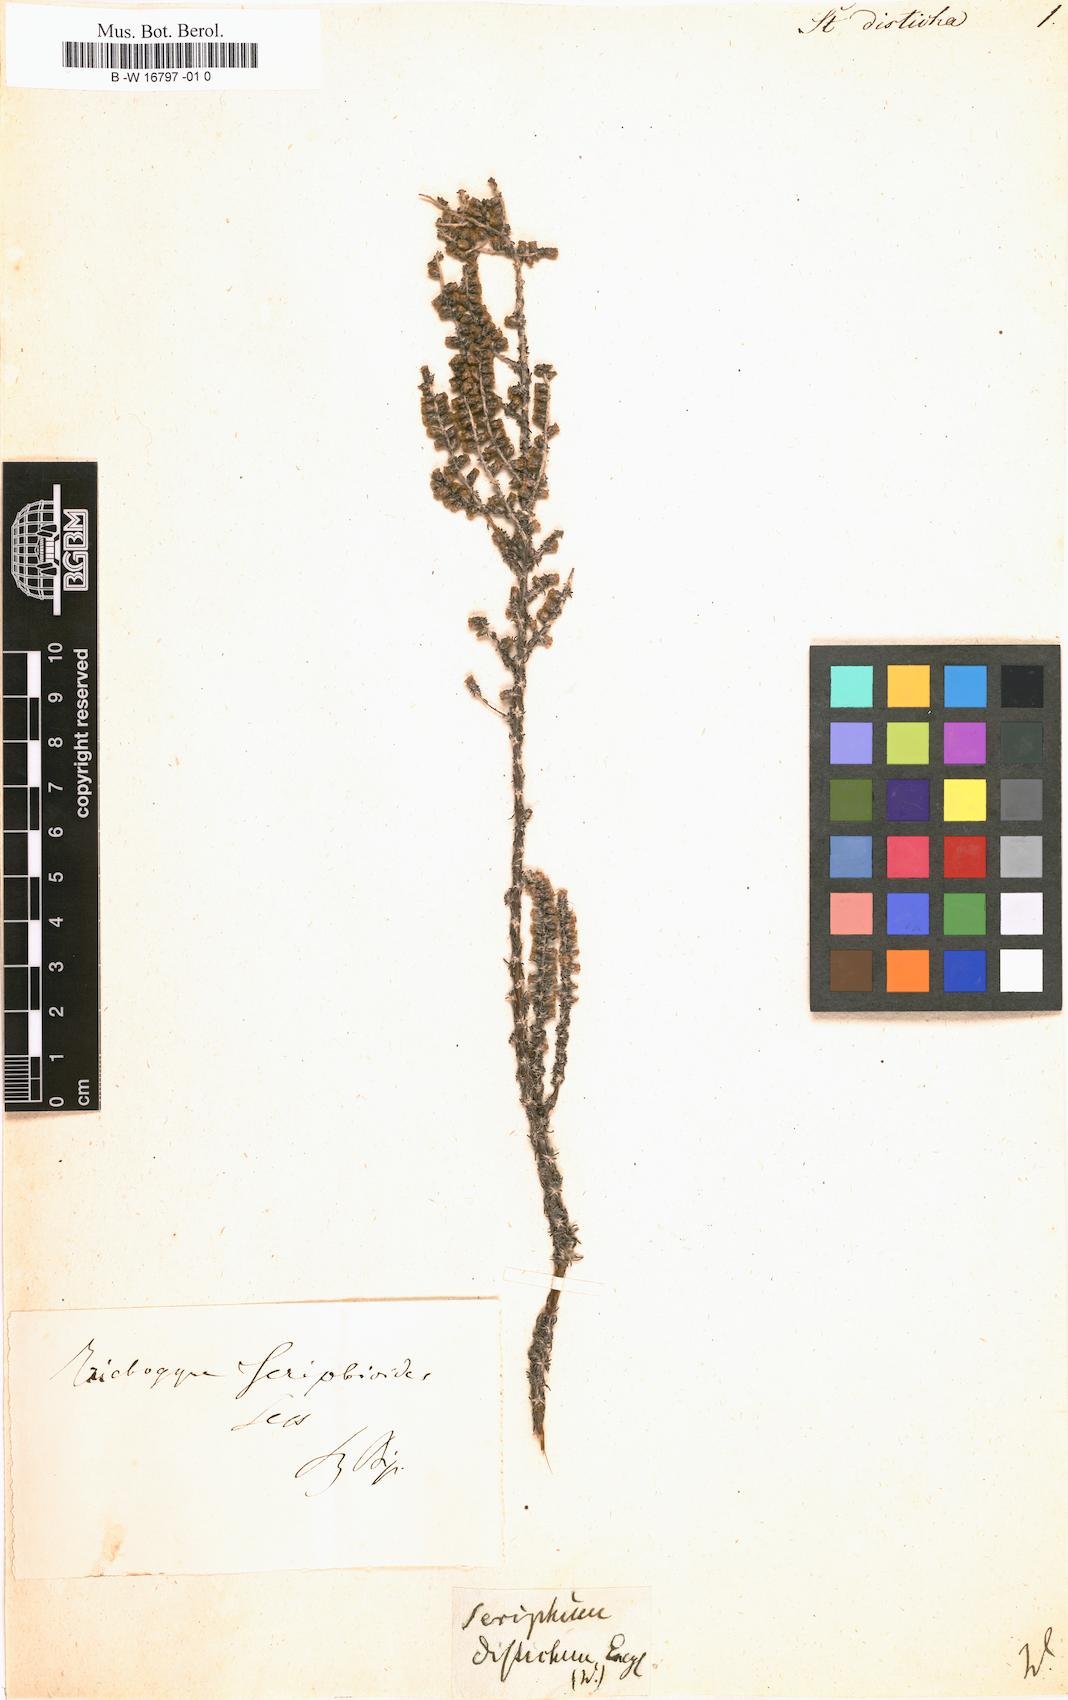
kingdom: Plantae
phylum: Tracheophyta
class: Magnoliopsida
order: Asterales
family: Asteraceae
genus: Ifloga
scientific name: Ifloga ambigua
